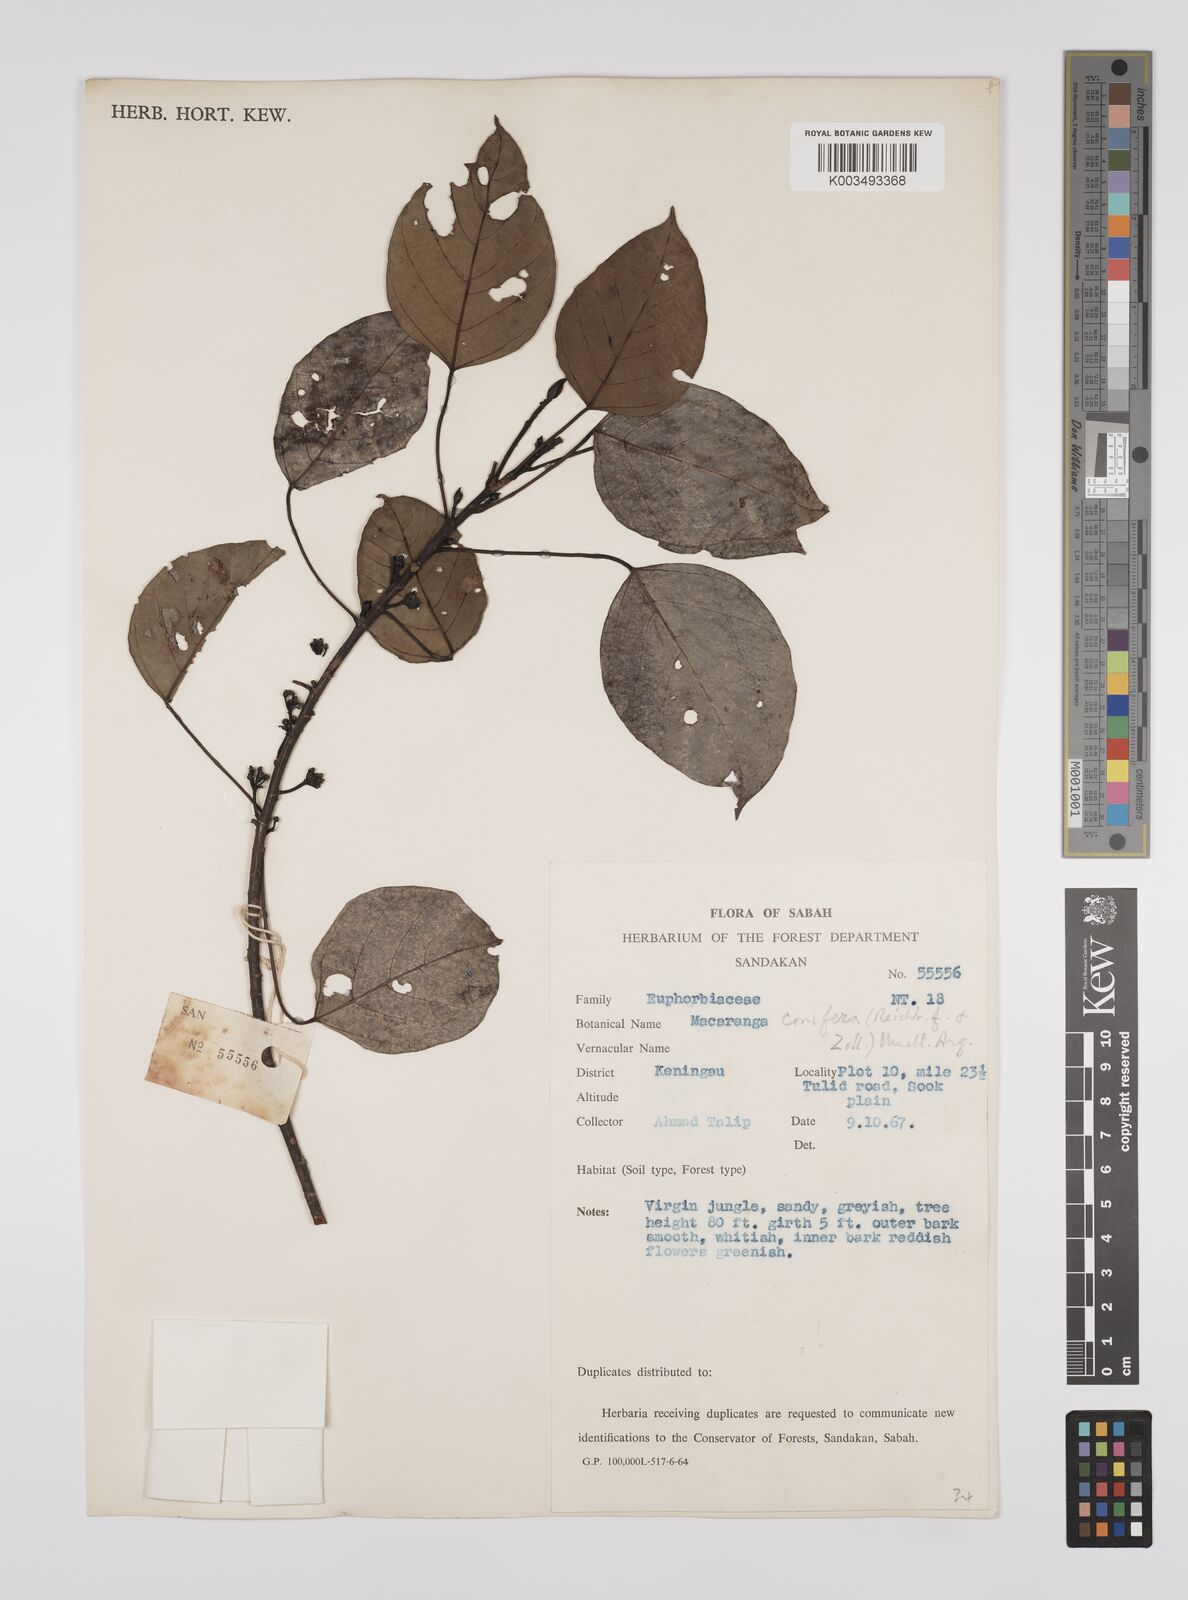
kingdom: Plantae
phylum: Tracheophyta
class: Magnoliopsida
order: Malpighiales
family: Euphorbiaceae
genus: Macaranga
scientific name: Macaranga conifera
